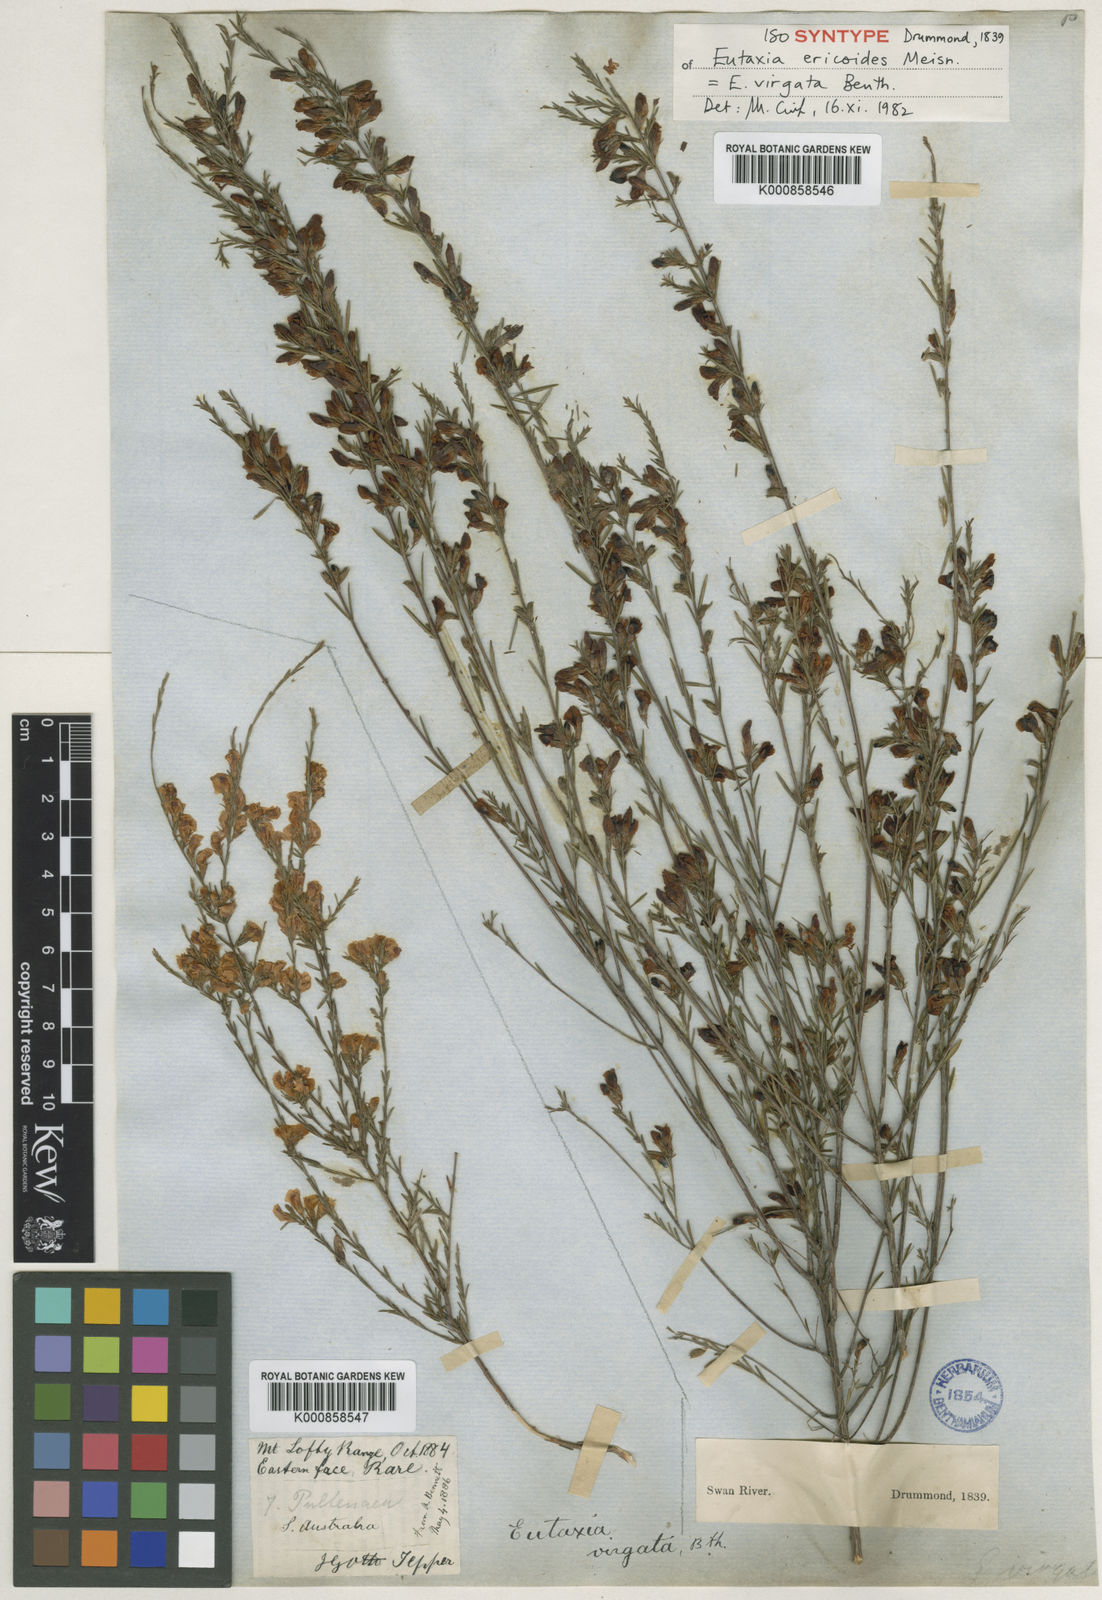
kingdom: Plantae
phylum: Tracheophyta
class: Magnoliopsida
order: Fabales
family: Fabaceae
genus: Eutaxia
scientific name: Eutaxia virgata
